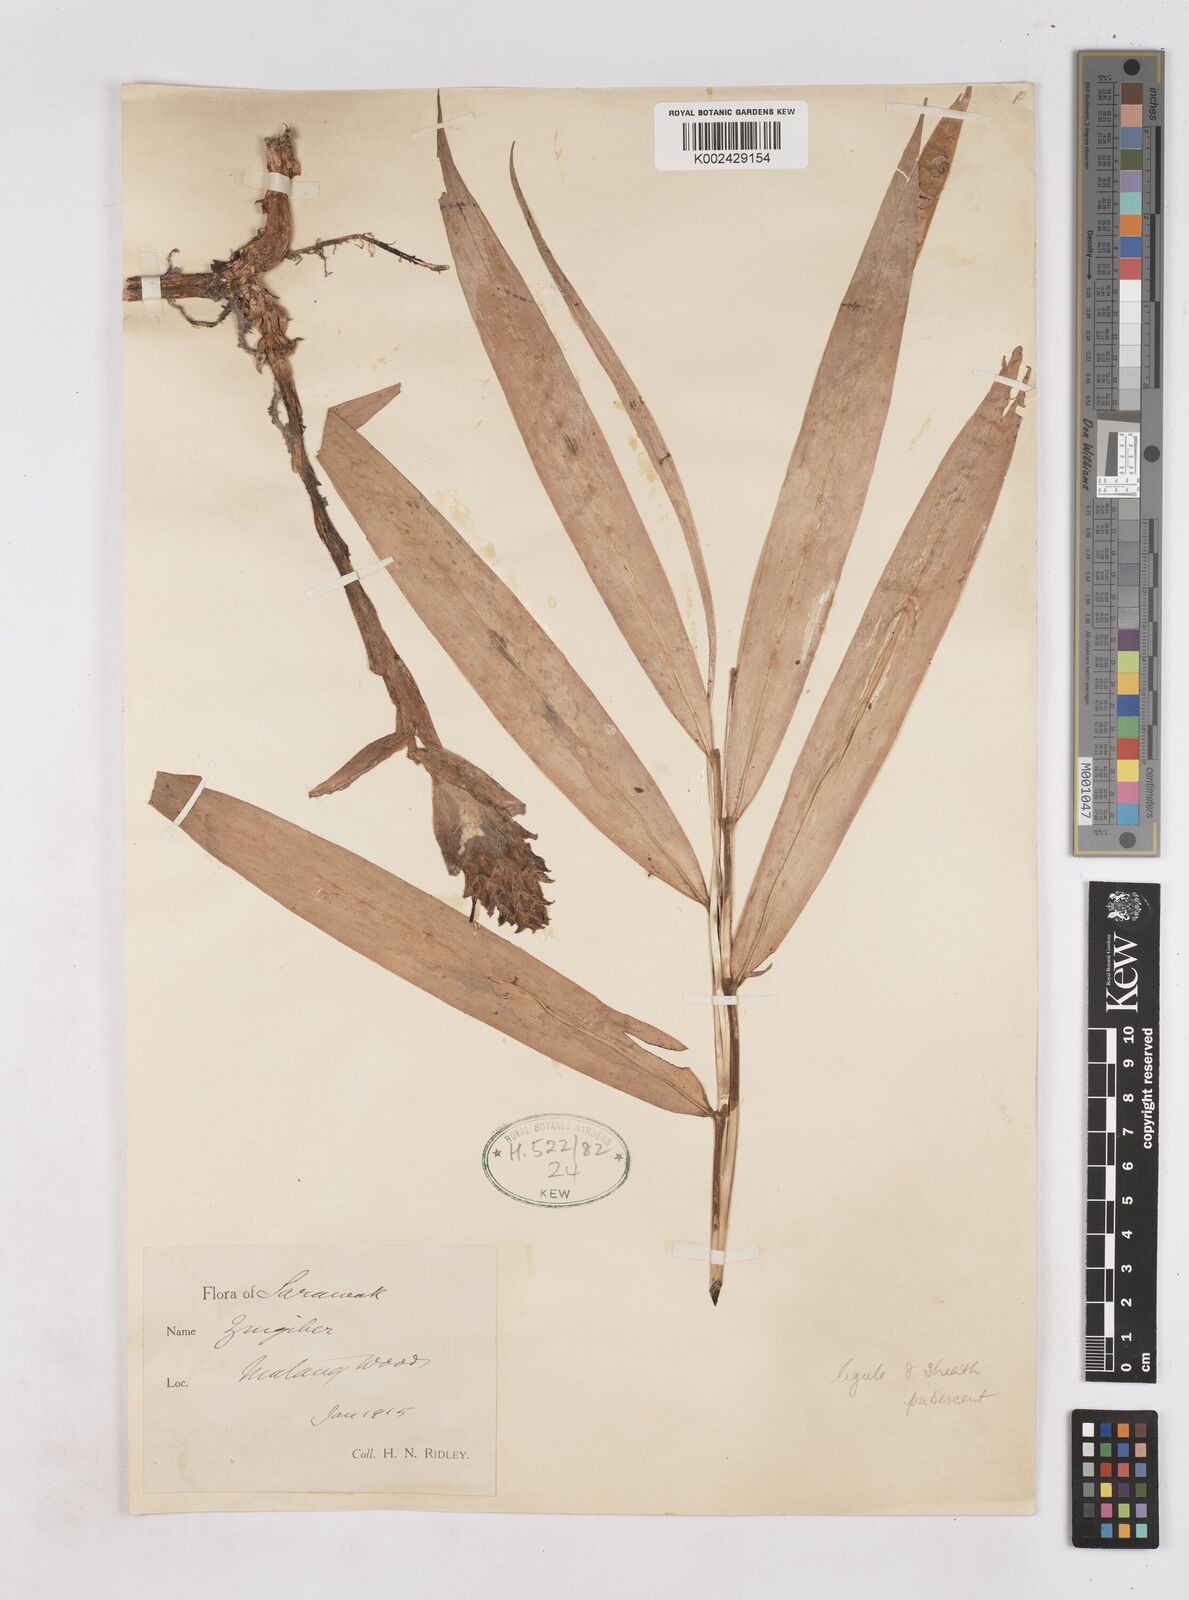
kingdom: Plantae
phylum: Tracheophyta
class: Liliopsida
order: Zingiberales
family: Zingiberaceae
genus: Zingiber
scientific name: Zingiber
